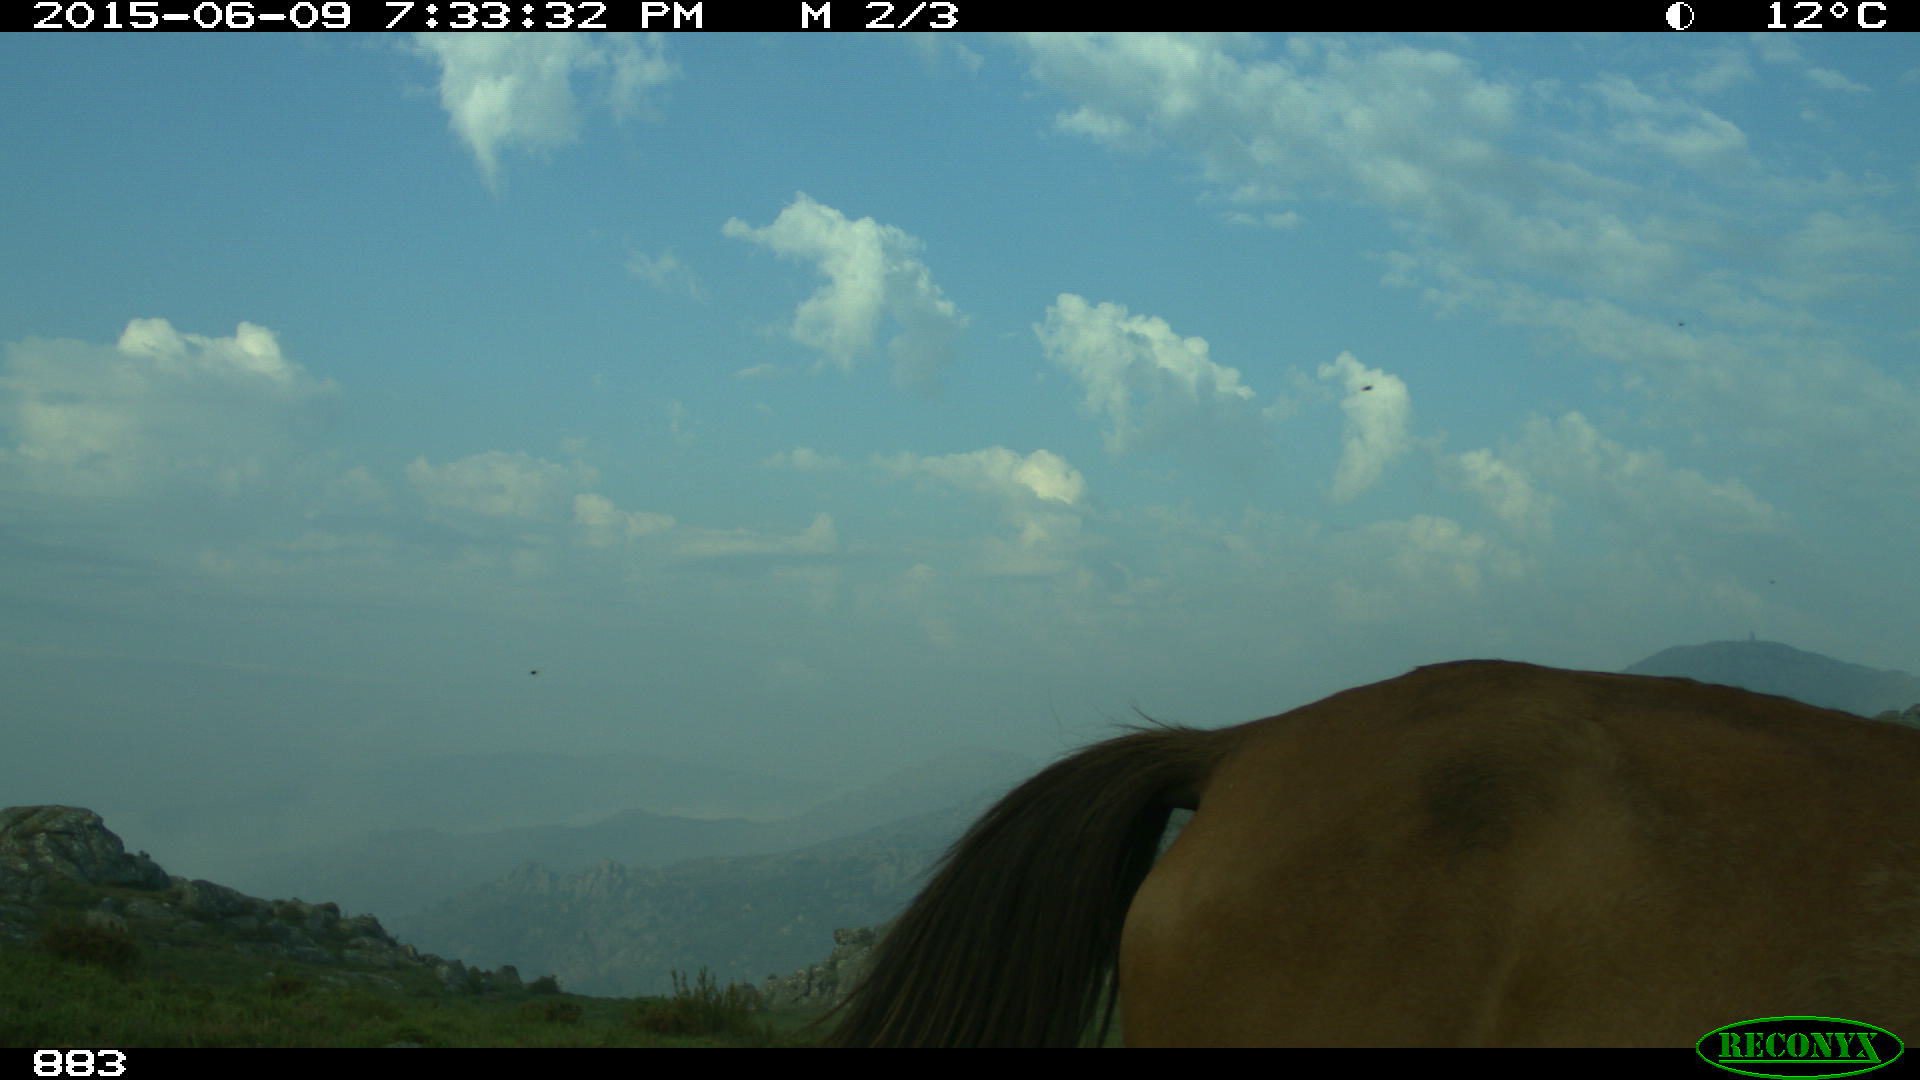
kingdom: Animalia
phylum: Chordata
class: Mammalia
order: Perissodactyla
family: Equidae
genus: Equus
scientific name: Equus caballus
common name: Horse
